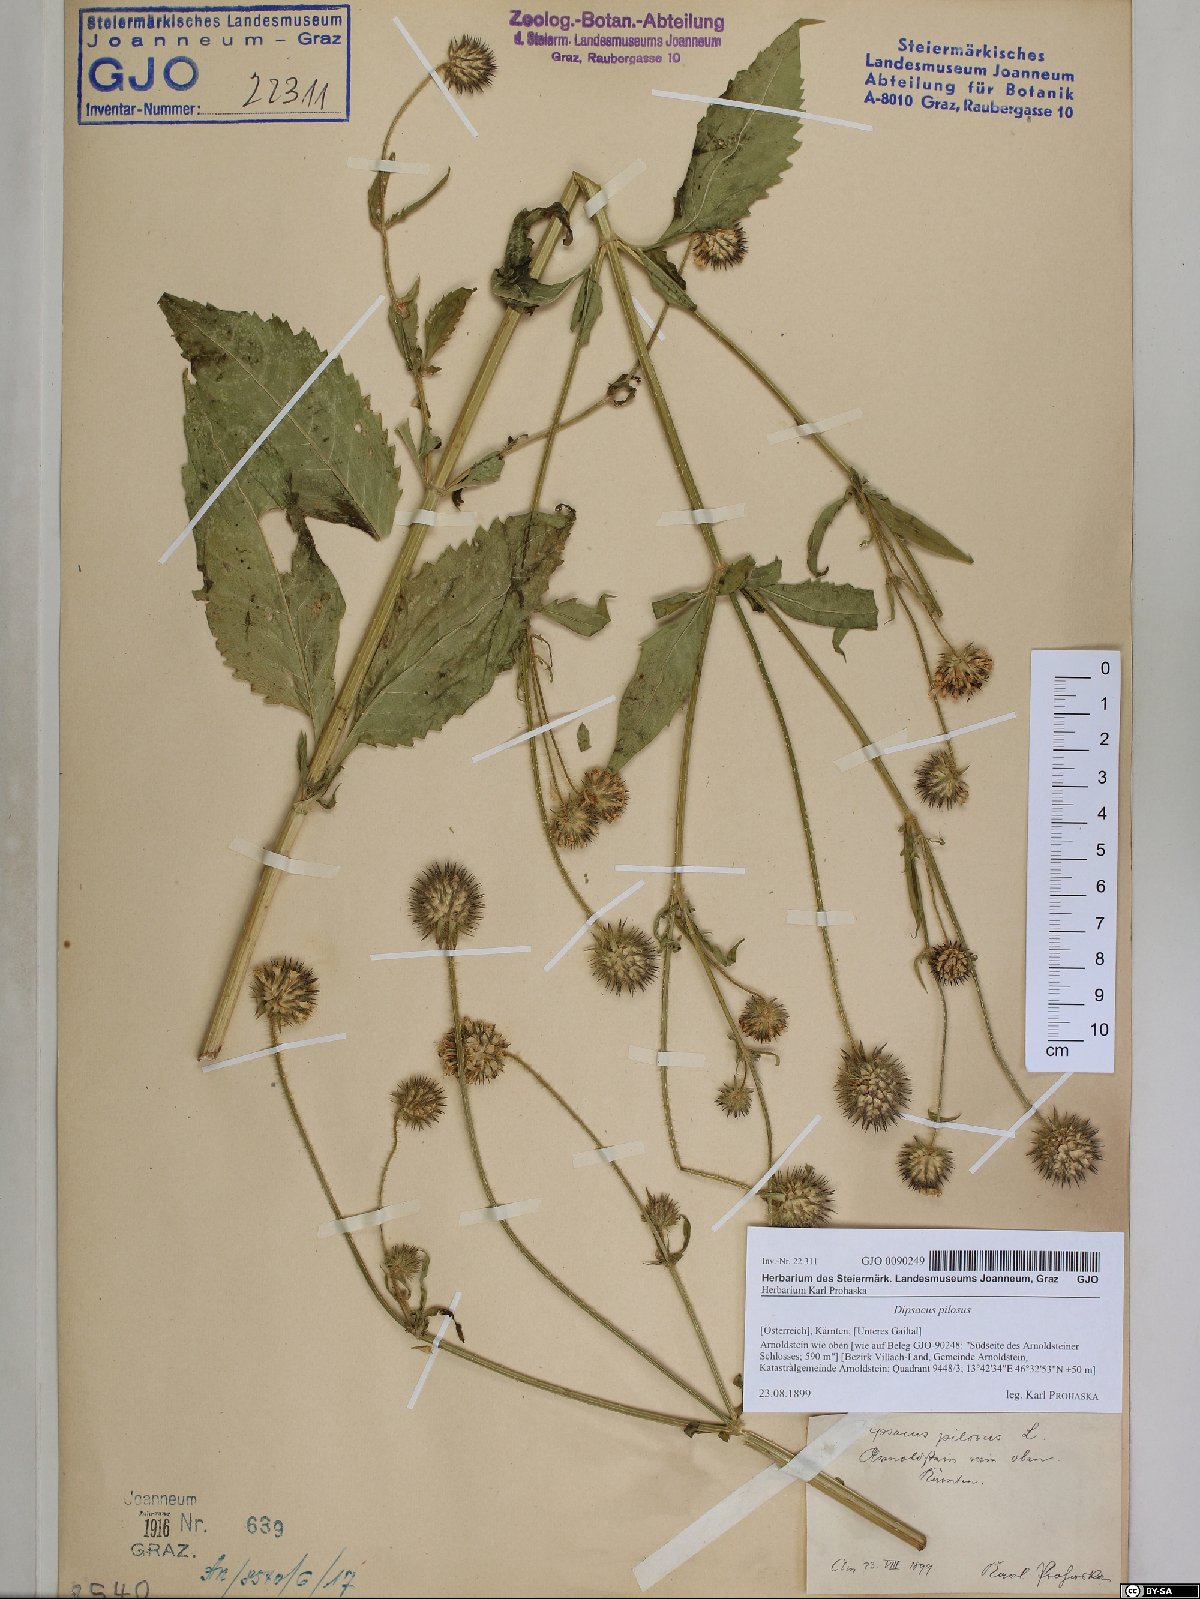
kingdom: Plantae
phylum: Tracheophyta
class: Magnoliopsida
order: Dipsacales
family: Caprifoliaceae
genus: Dipsacus
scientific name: Dipsacus pilosus
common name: Small teasel
